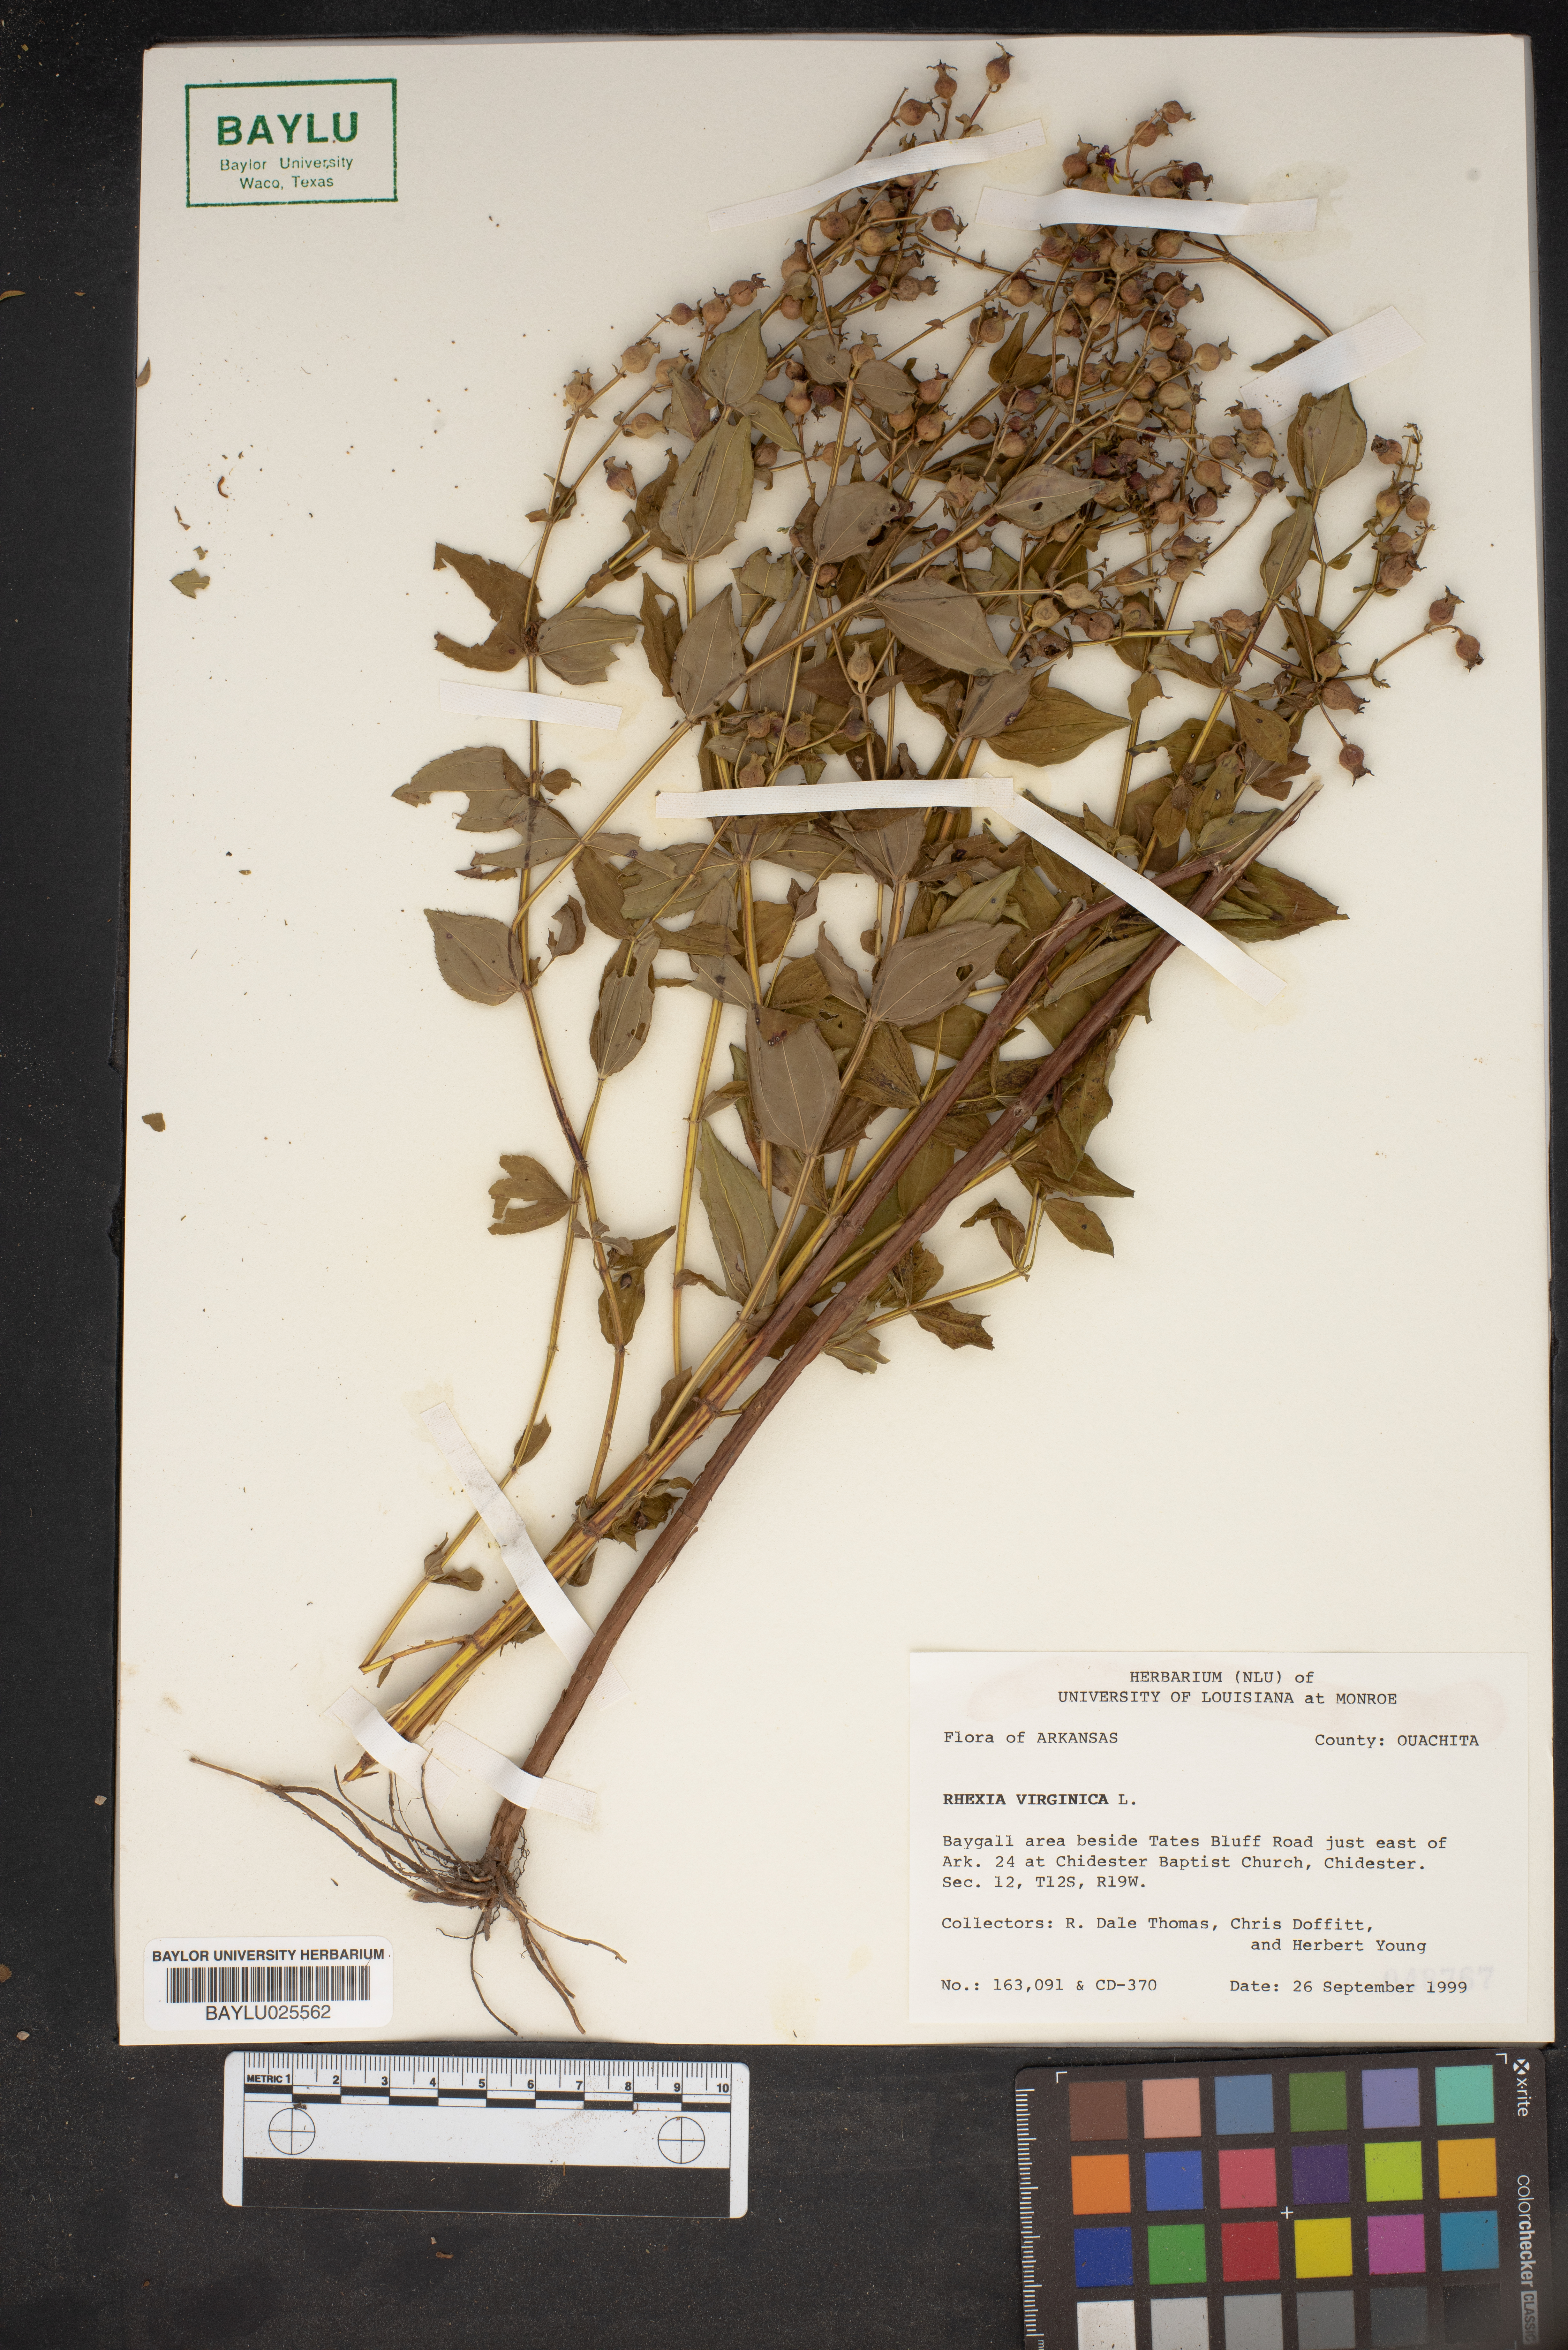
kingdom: Plantae
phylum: Tracheophyta
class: Magnoliopsida
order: Myrtales
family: Melastomataceae
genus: Rhexia
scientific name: Rhexia virginica
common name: Common meadow beauty
